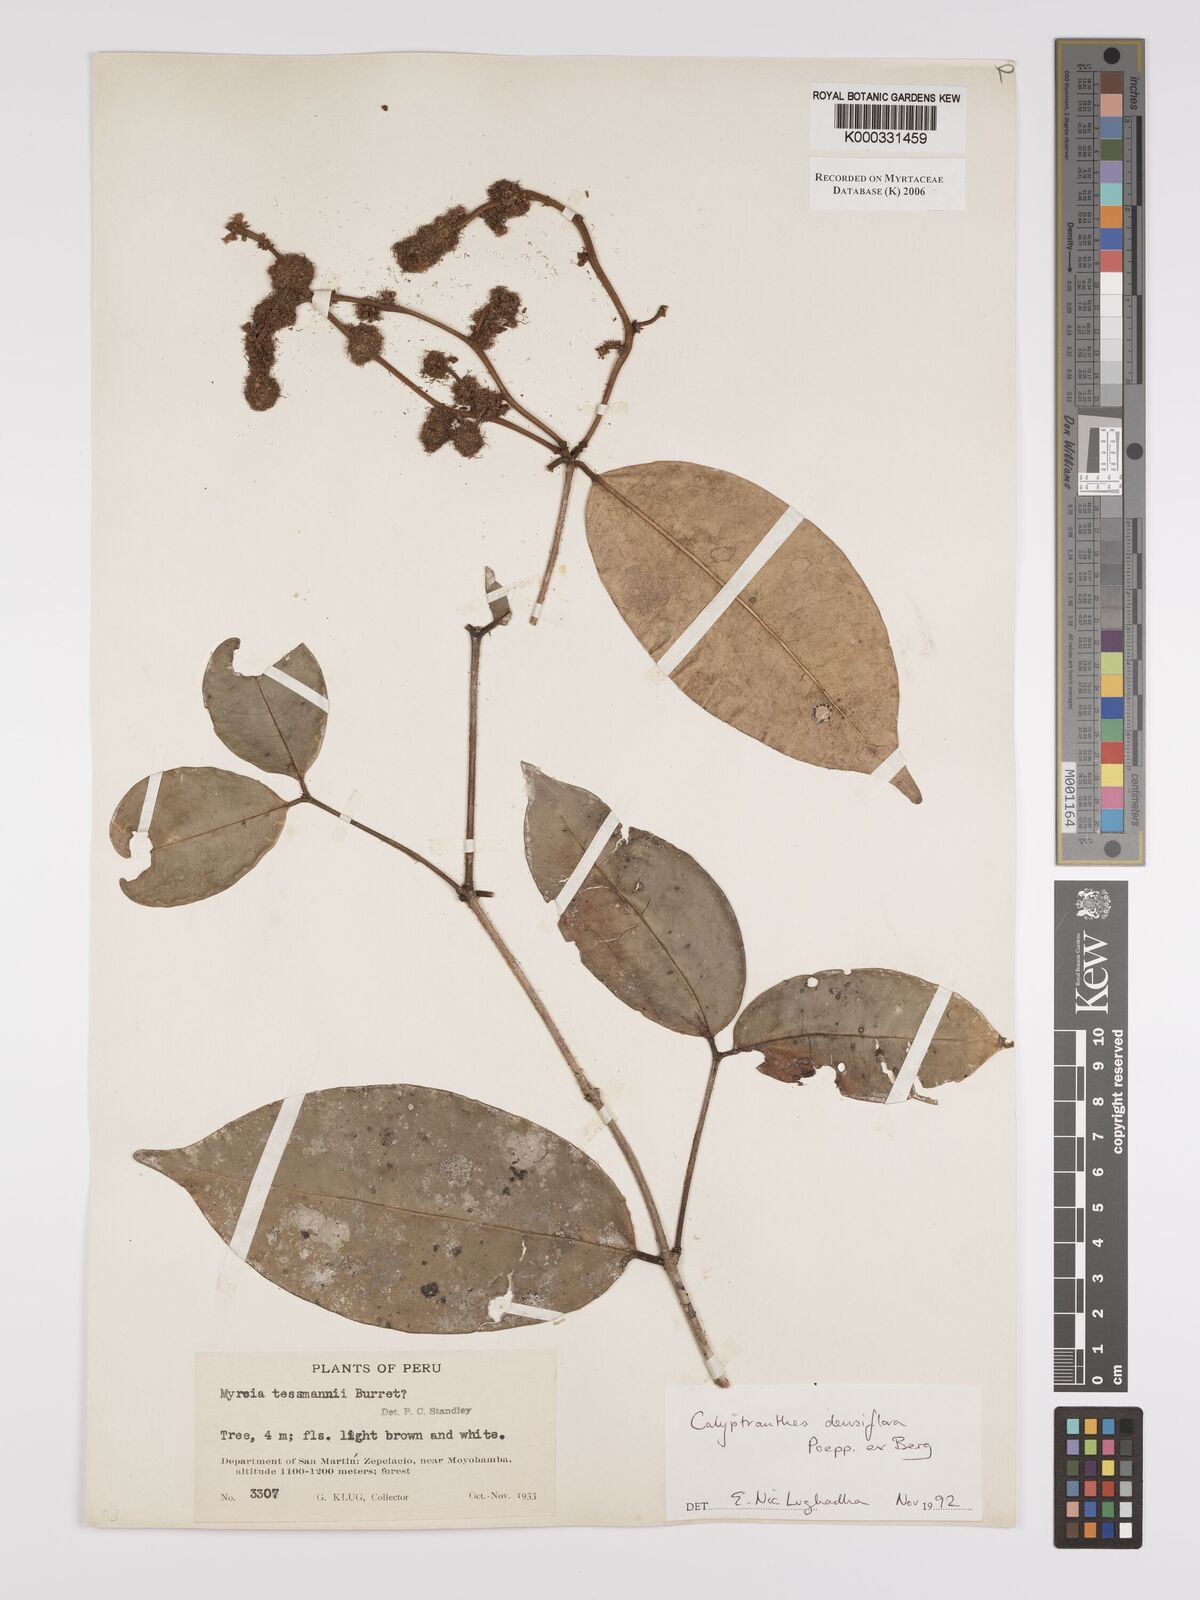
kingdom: Plantae
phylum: Tracheophyta
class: Magnoliopsida
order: Myrtales
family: Myrtaceae
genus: Myrcia
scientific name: Myrcia densiflora
